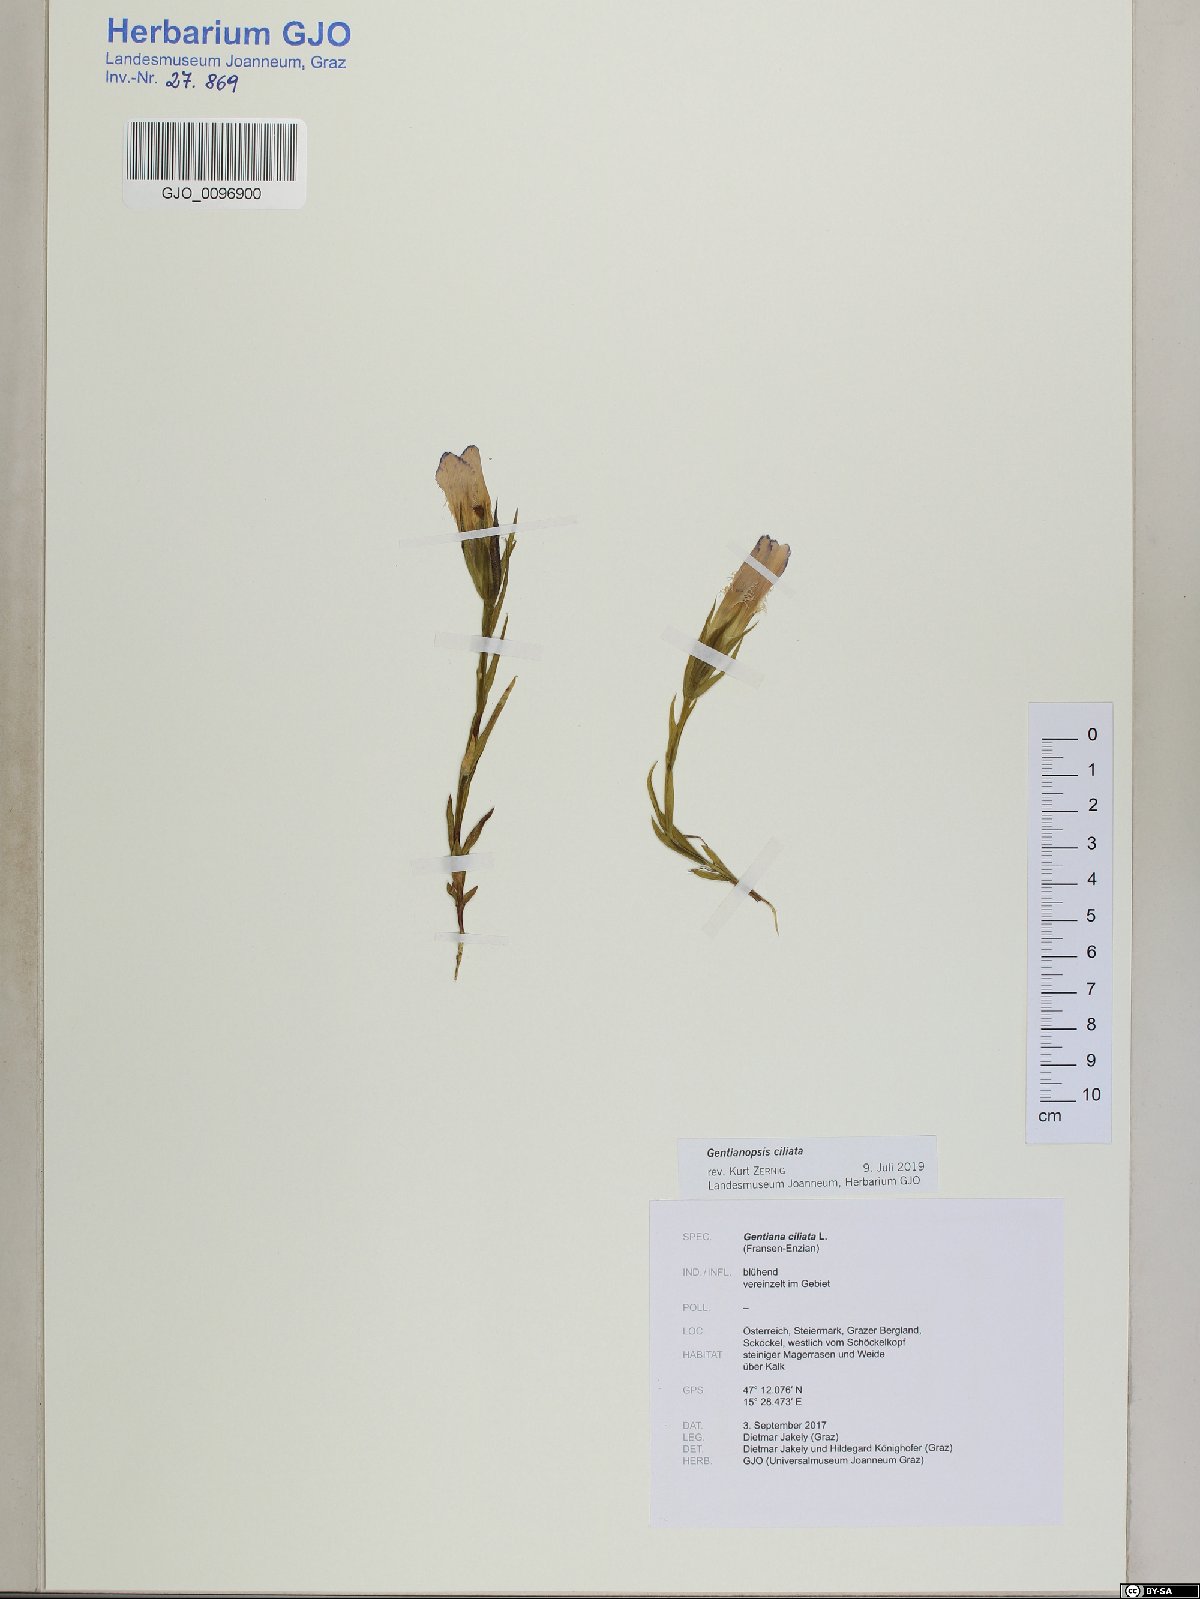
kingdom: Plantae
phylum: Tracheophyta
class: Magnoliopsida
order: Gentianales
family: Gentianaceae
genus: Gentianopsis
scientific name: Gentianopsis ciliata
